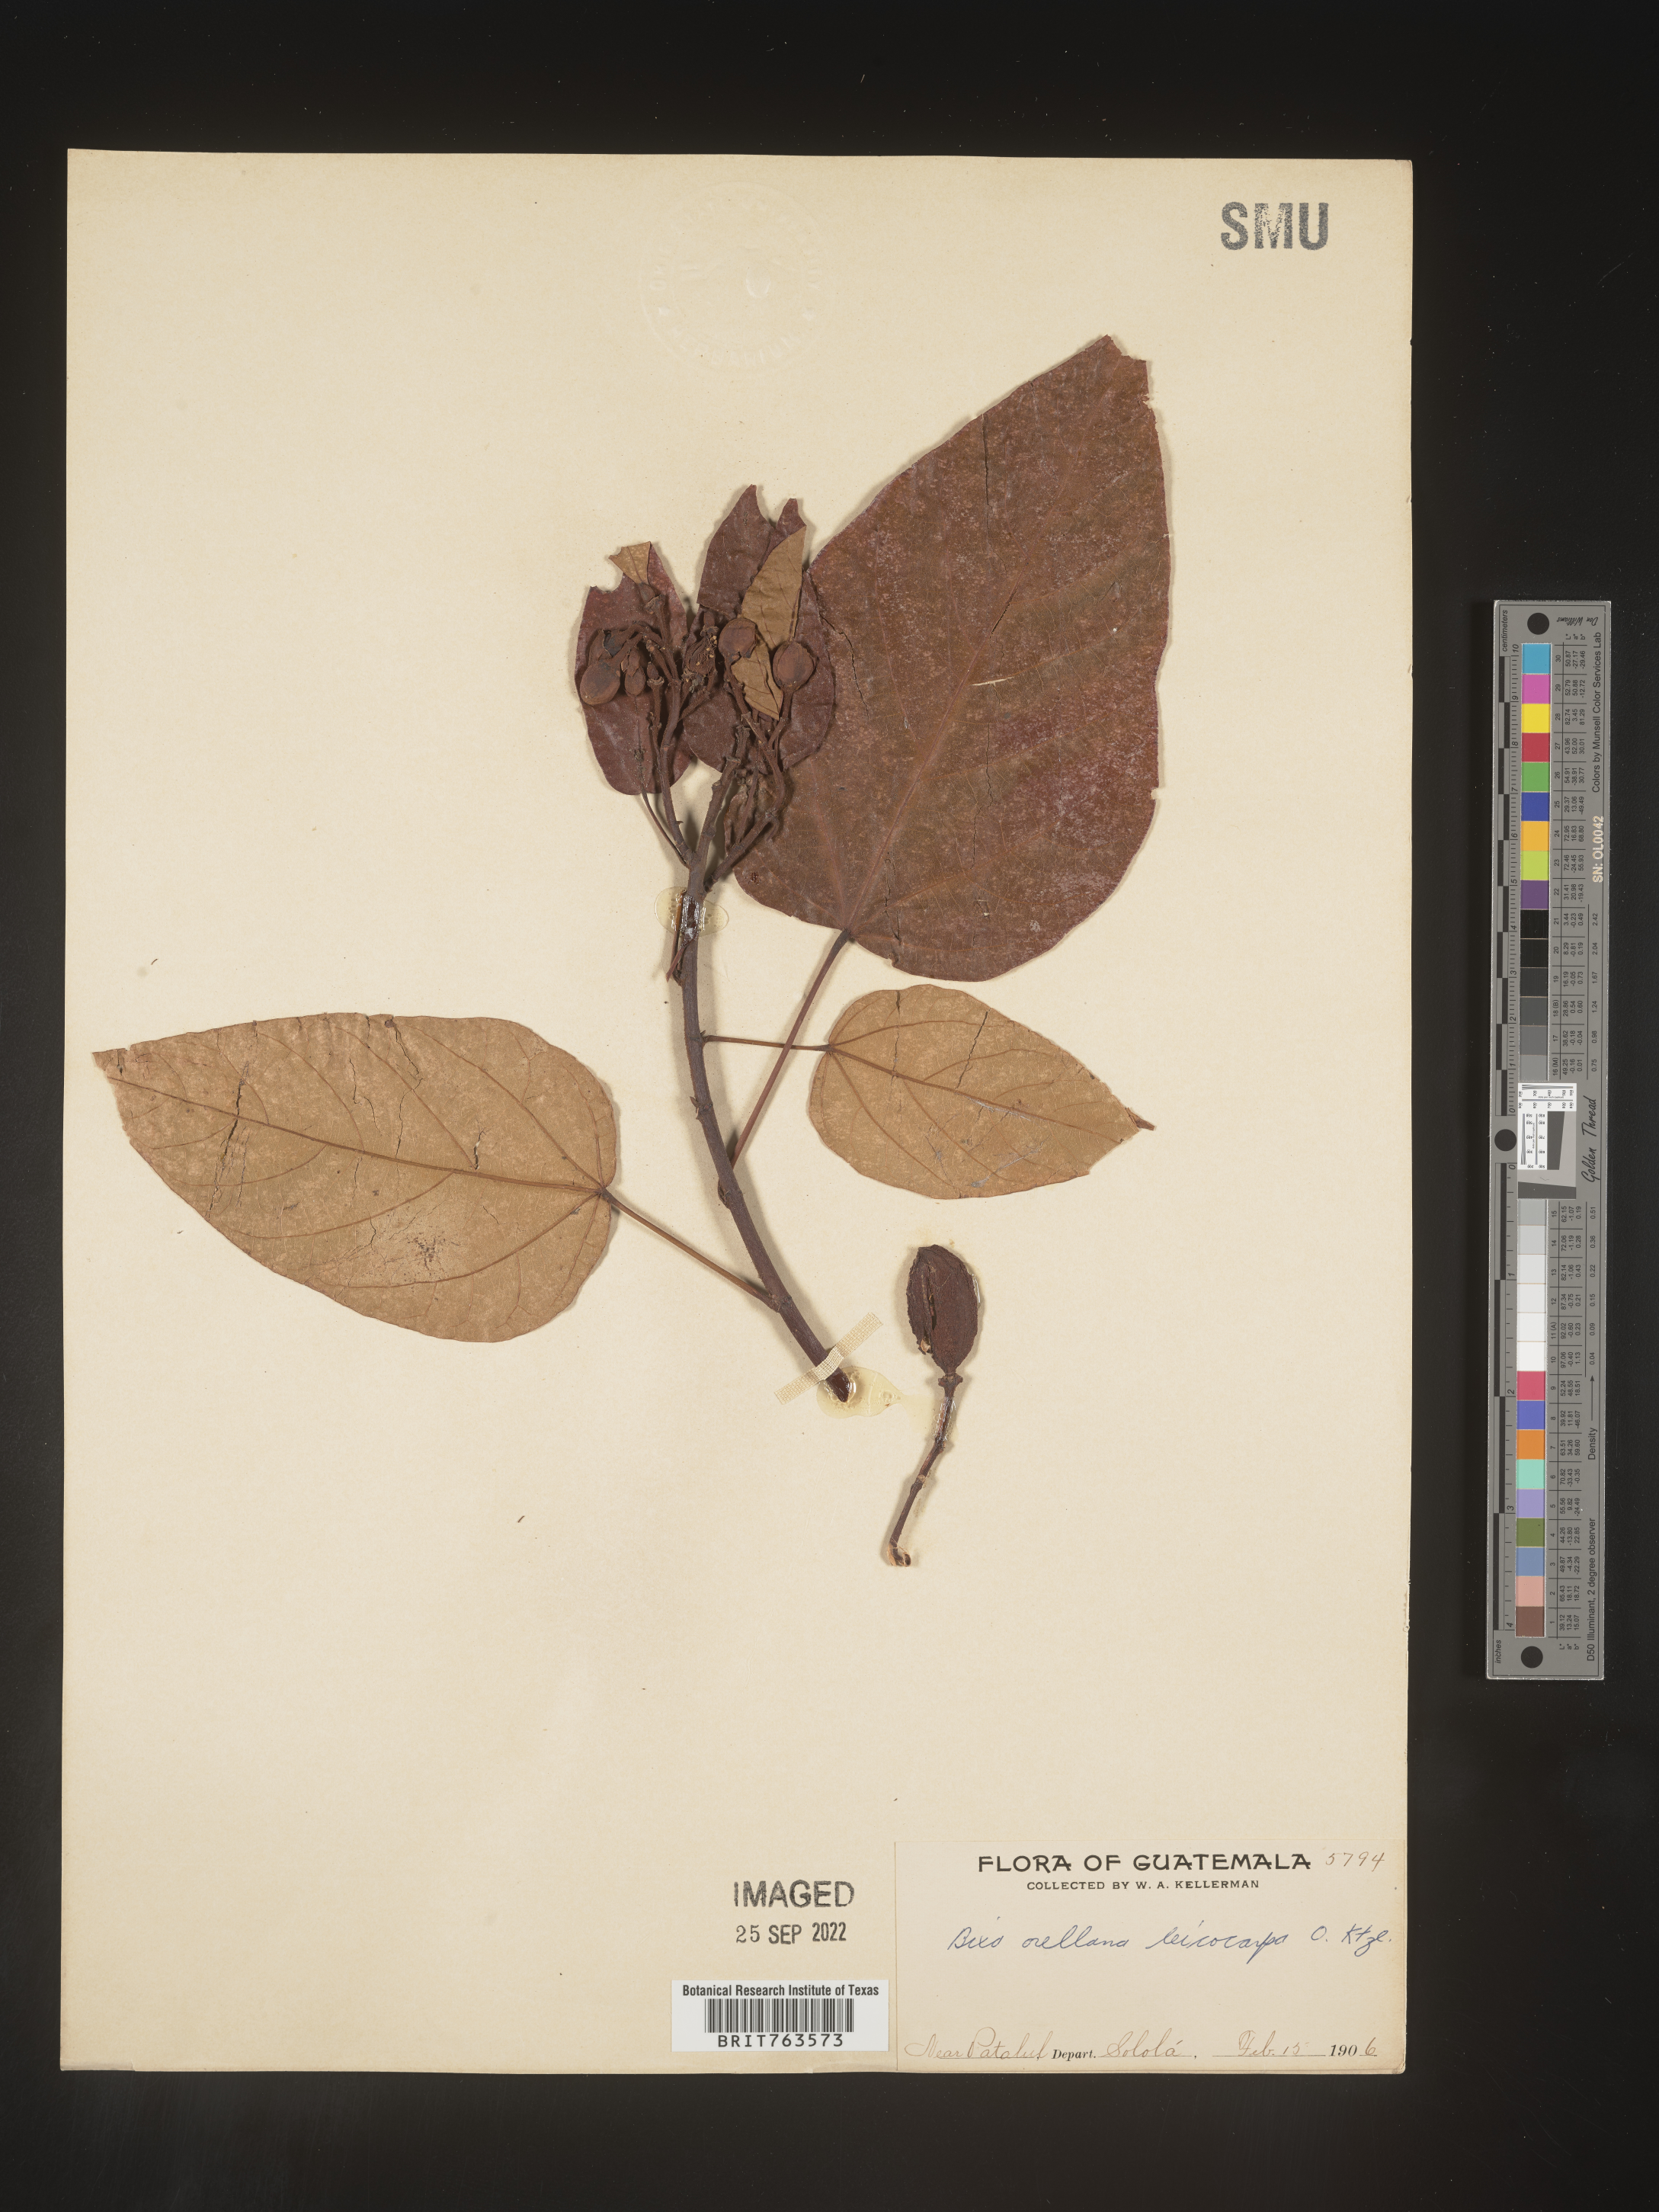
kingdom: Plantae
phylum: Tracheophyta
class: Magnoliopsida
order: Malvales
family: Bixaceae
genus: Bixa
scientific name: Bixa
